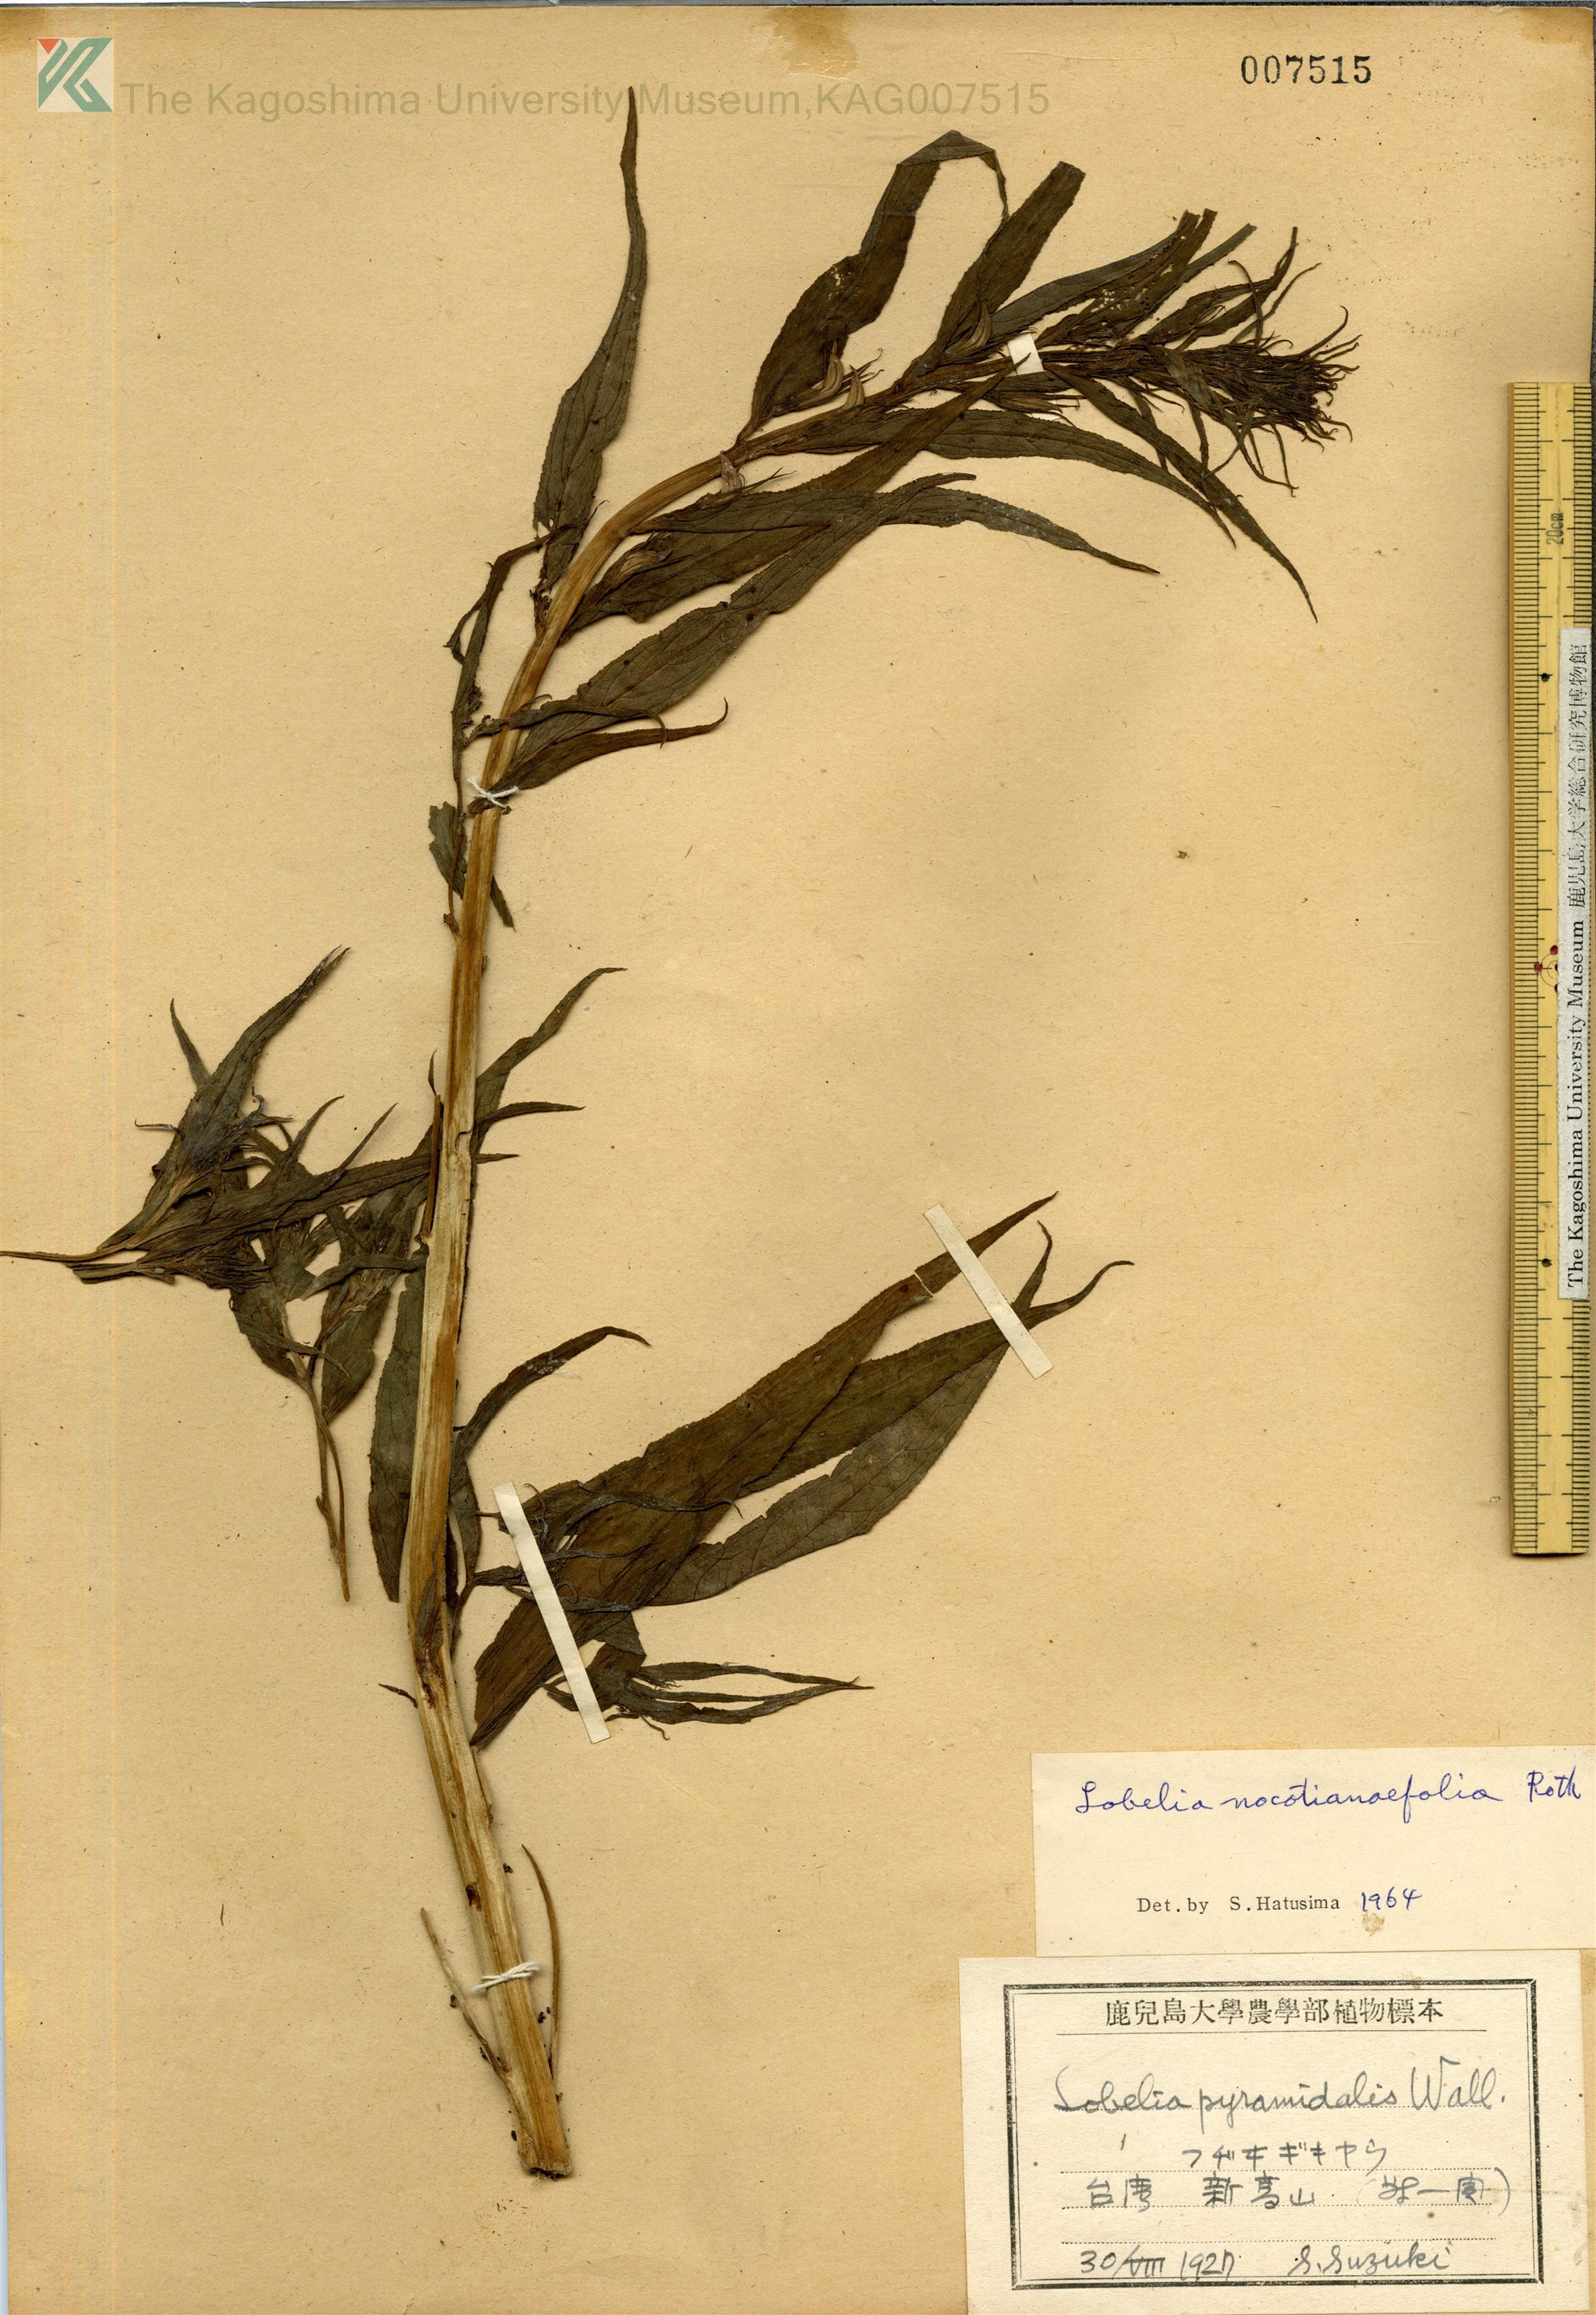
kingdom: Plantae
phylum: Tracheophyta
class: Magnoliopsida
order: Asterales
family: Campanulaceae
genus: Lobelia
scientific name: Lobelia
